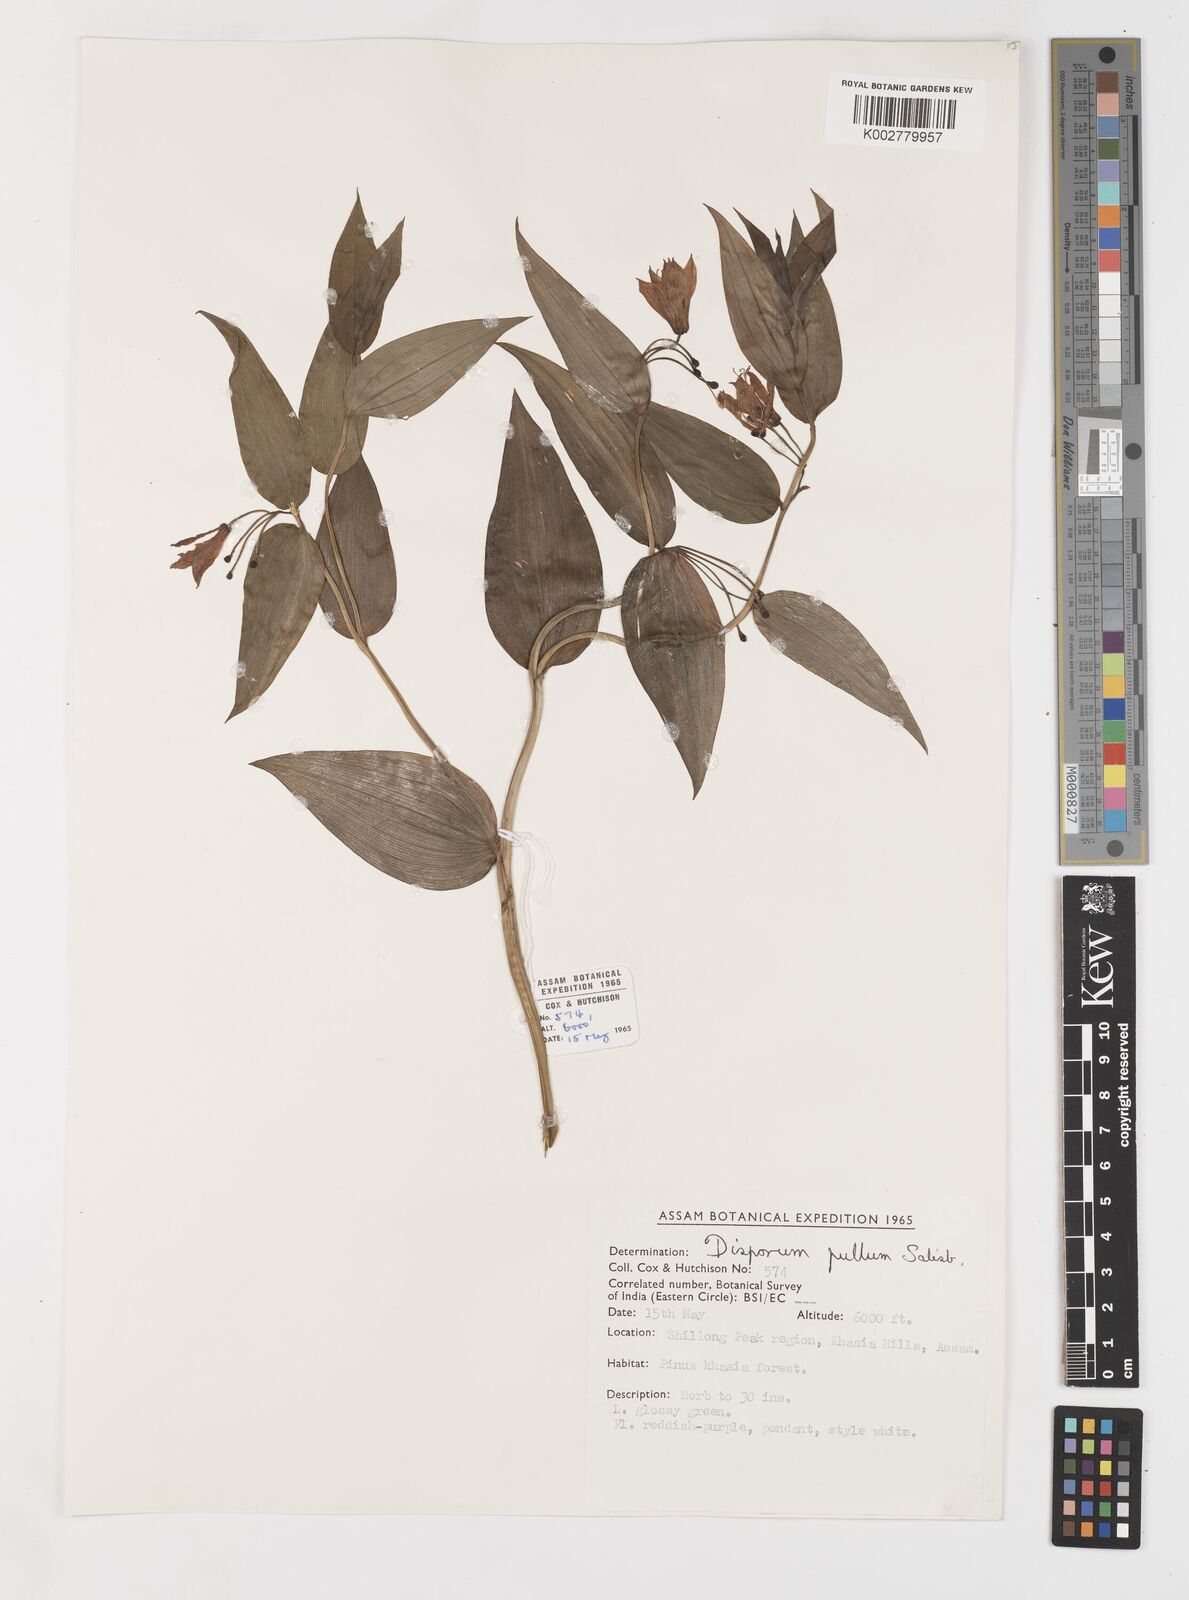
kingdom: Plantae
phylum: Tracheophyta
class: Liliopsida
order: Liliales
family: Colchicaceae
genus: Disporum
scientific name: Disporum cantoniense
